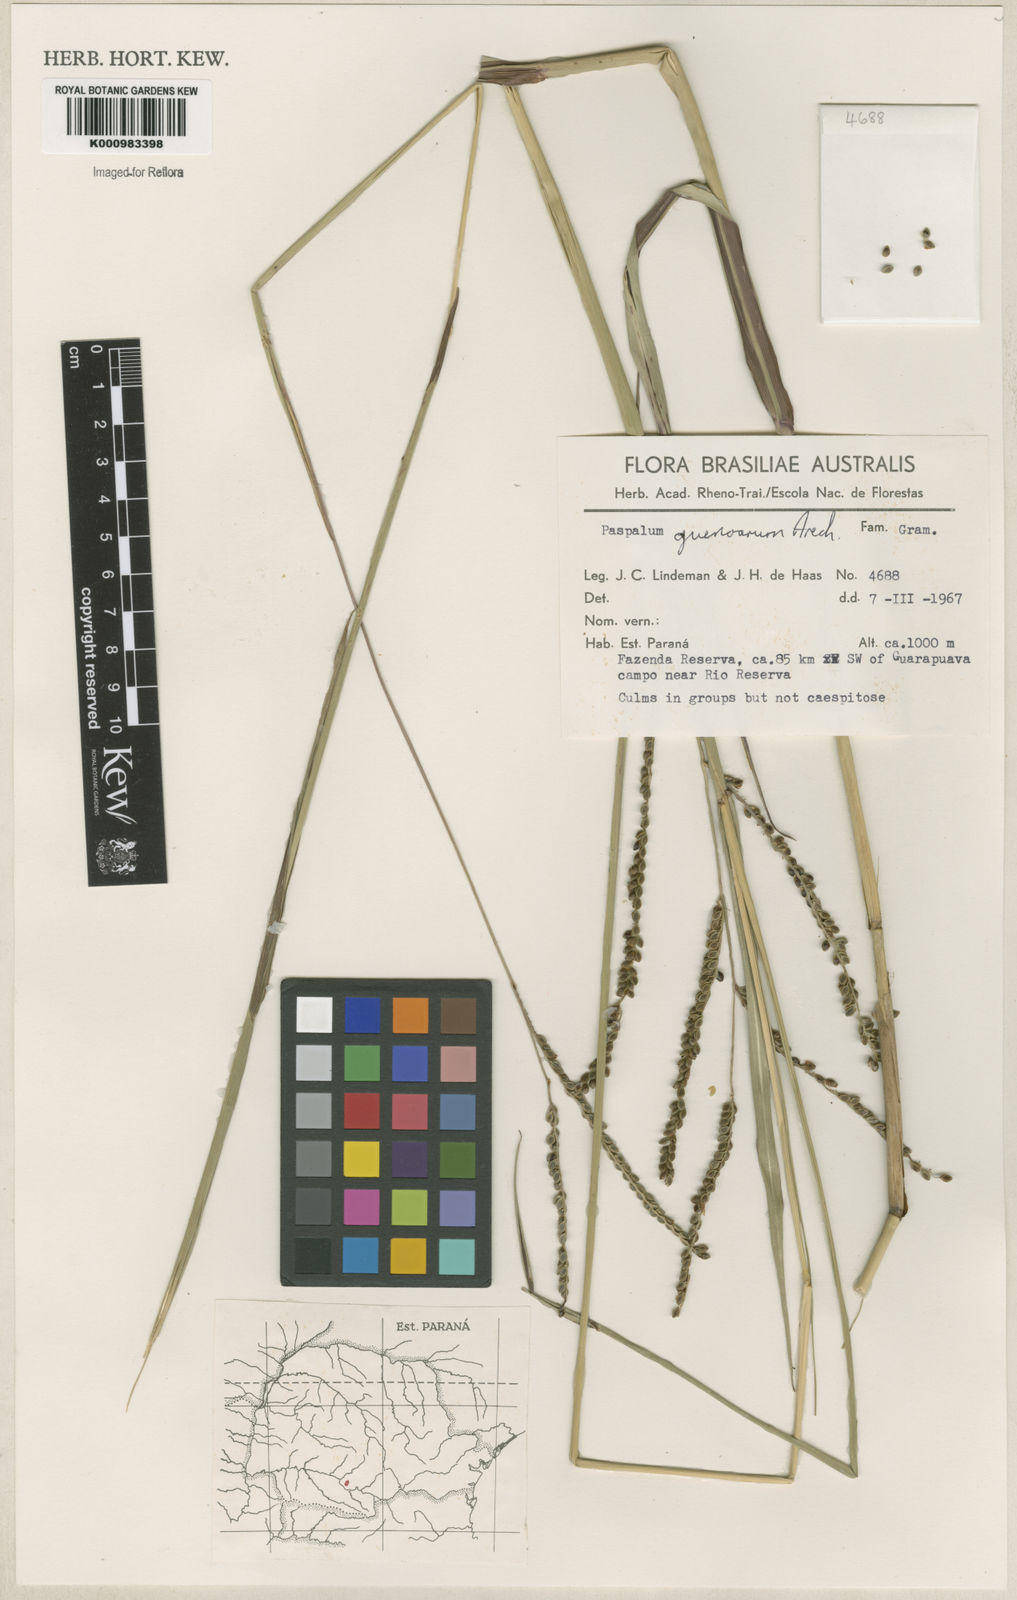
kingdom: Plantae
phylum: Tracheophyta
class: Liliopsida
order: Poales
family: Poaceae
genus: Paspalum
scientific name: Paspalum guenoarum
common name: Wintergreen paspalum
